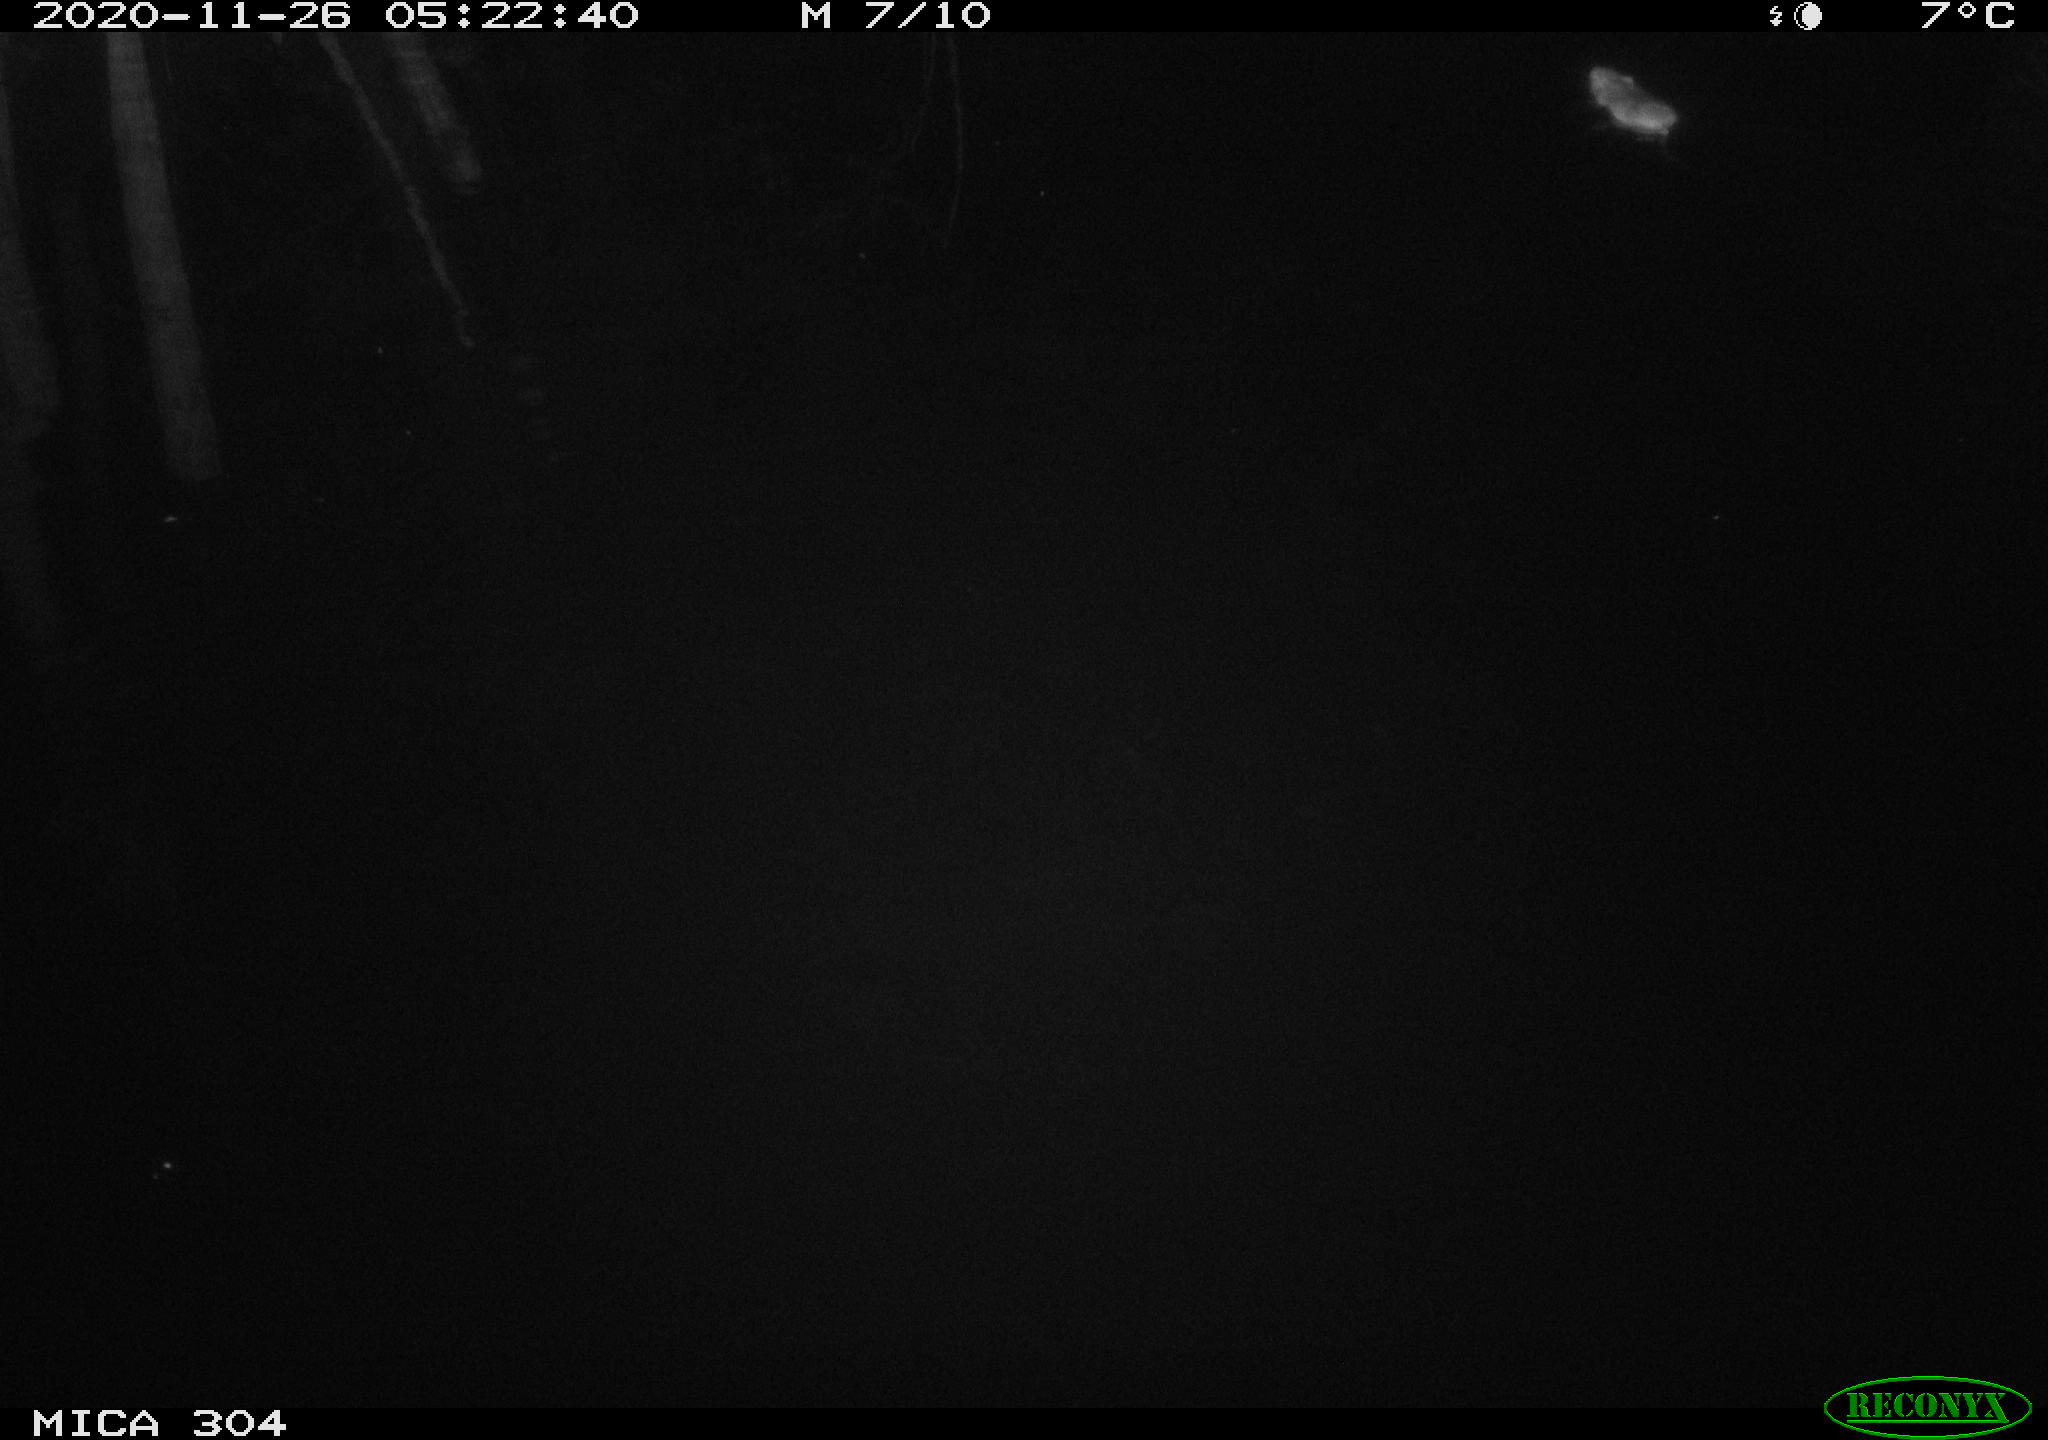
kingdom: Animalia
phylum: Chordata
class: Mammalia
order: Rodentia
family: Muridae
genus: Rattus
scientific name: Rattus norvegicus
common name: Brown rat
